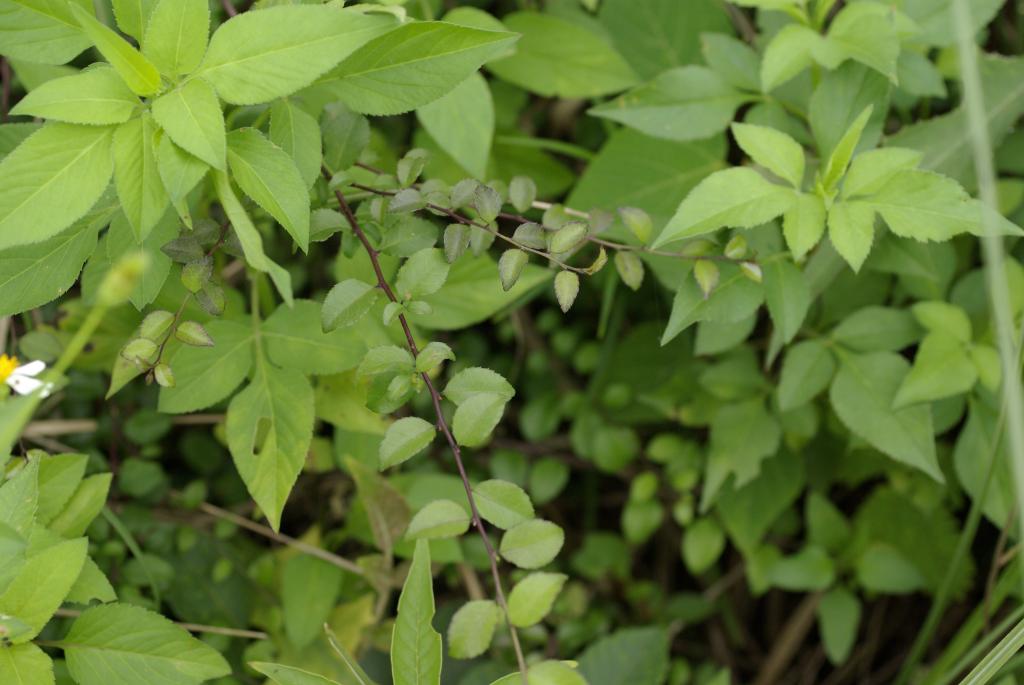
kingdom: Plantae
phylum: Tracheophyta
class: Magnoliopsida
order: Aquifoliales
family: Aquifoliaceae
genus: Ilex
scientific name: Ilex asprella
